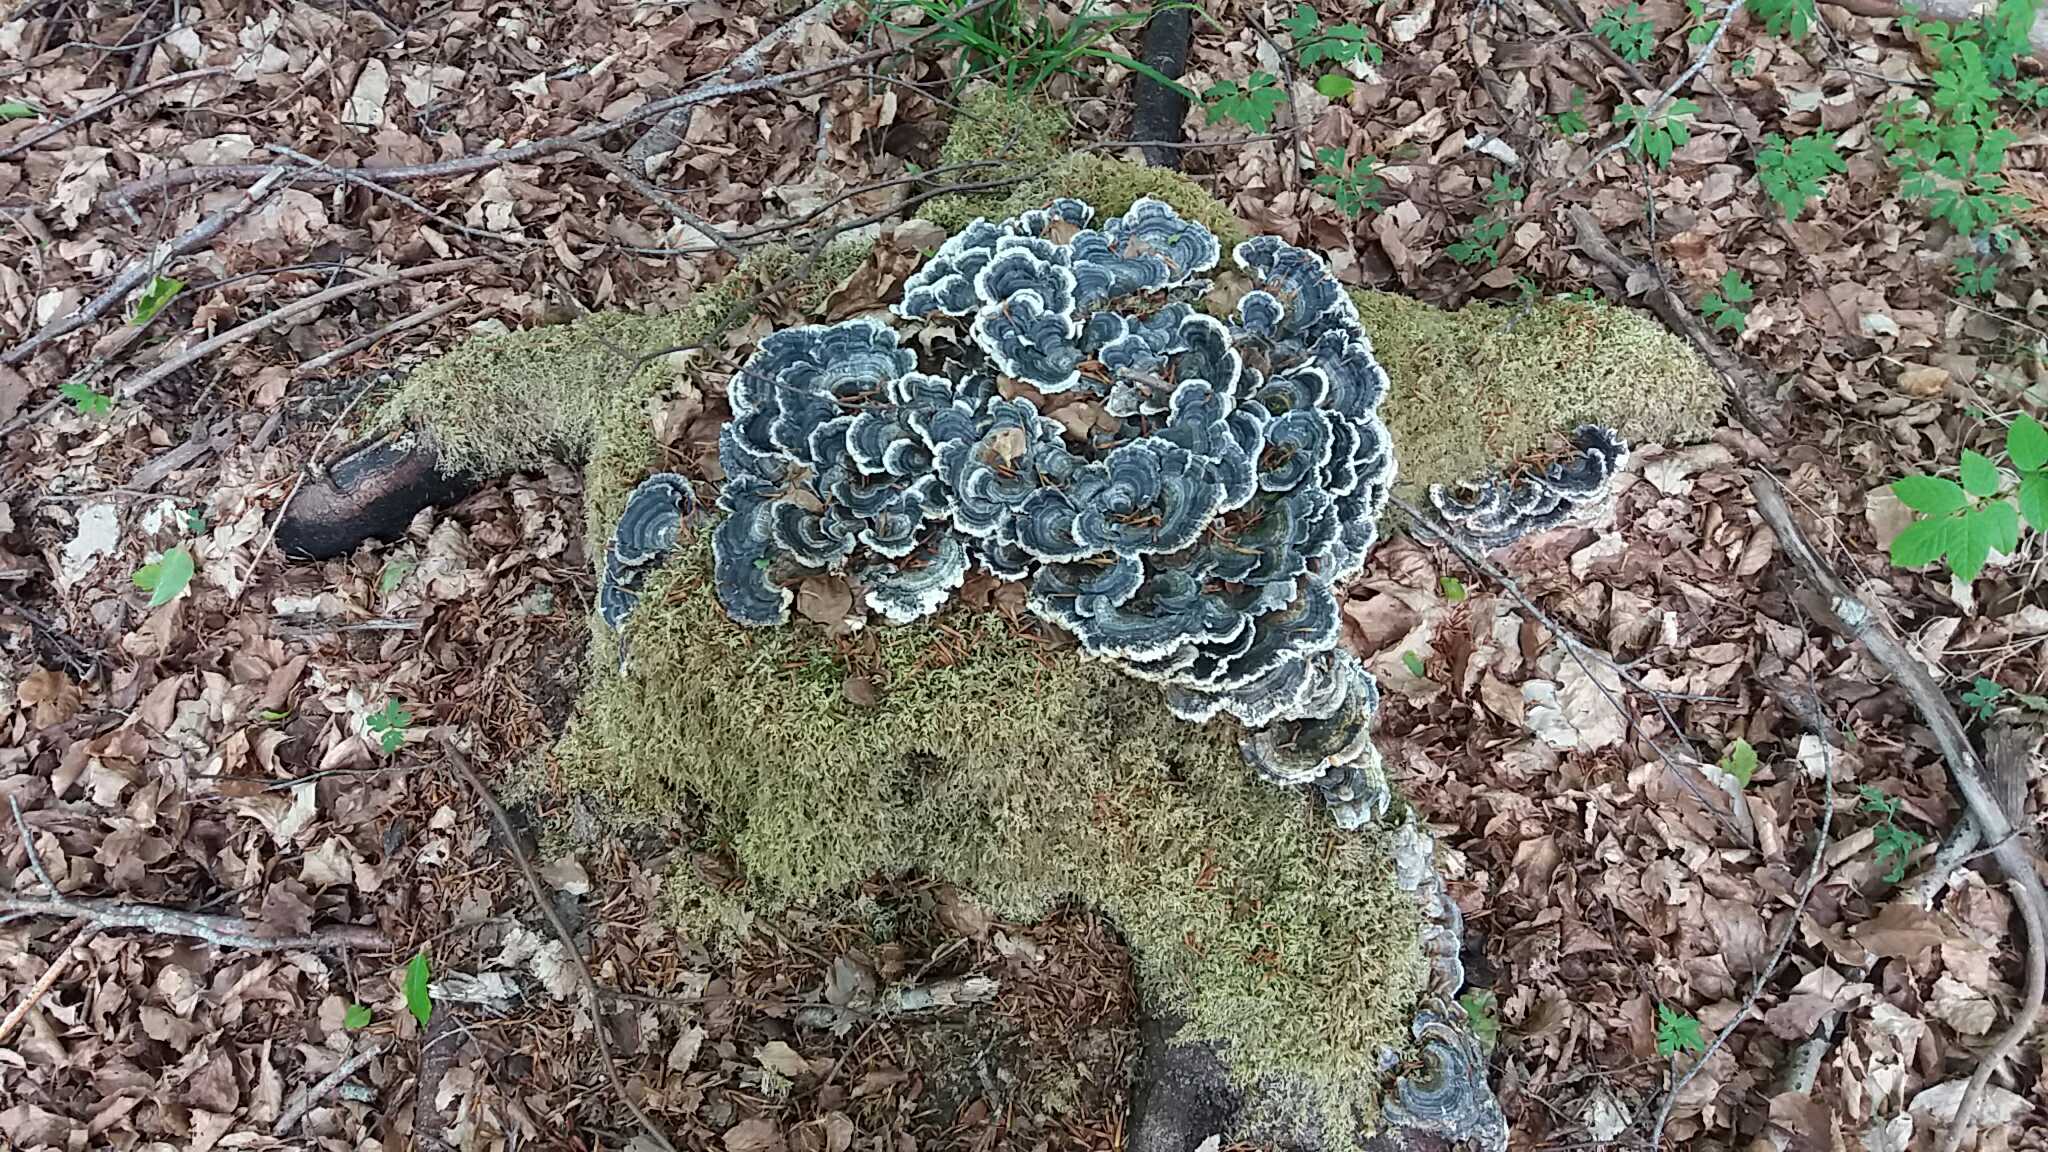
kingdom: Fungi
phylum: Basidiomycota
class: Agaricomycetes
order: Polyporales
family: Polyporaceae
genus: Trametes
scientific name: Trametes versicolor
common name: broget læderporesvamp
